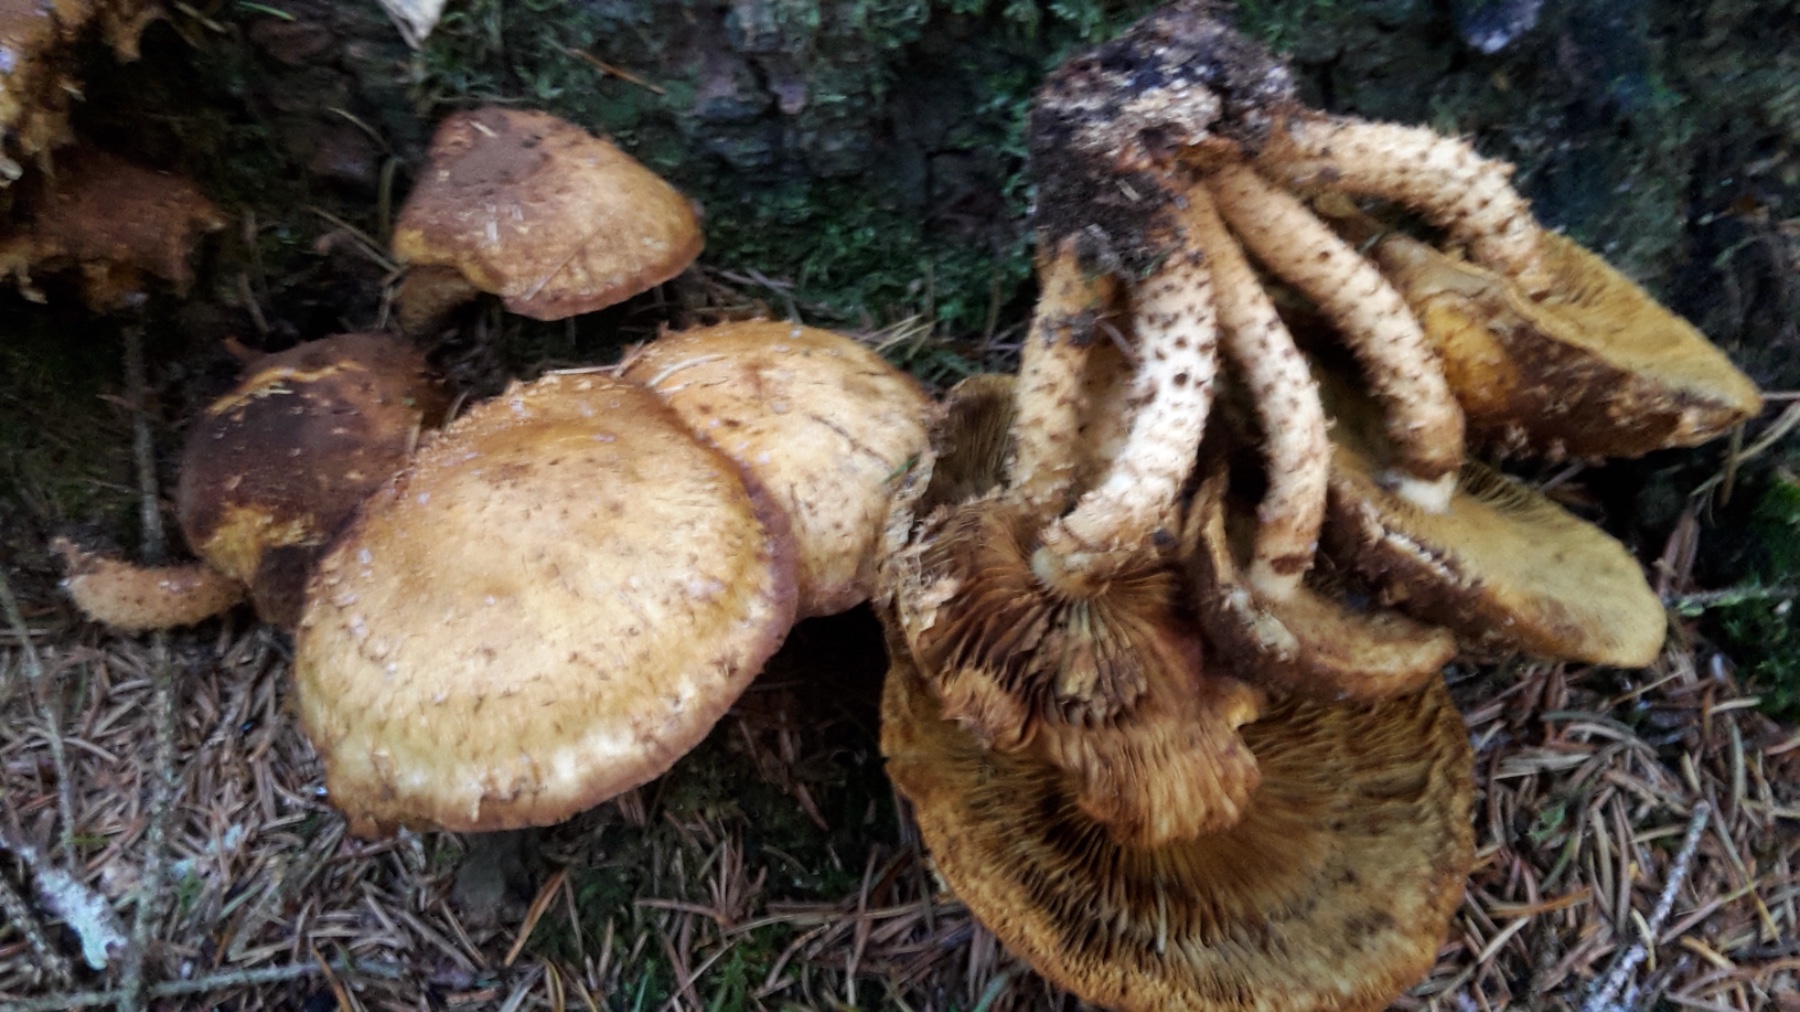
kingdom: Fungi
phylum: Basidiomycota
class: Agaricomycetes
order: Agaricales
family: Strophariaceae
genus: Pholiota
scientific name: Pholiota squarrosa
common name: krumskællet skælhat
